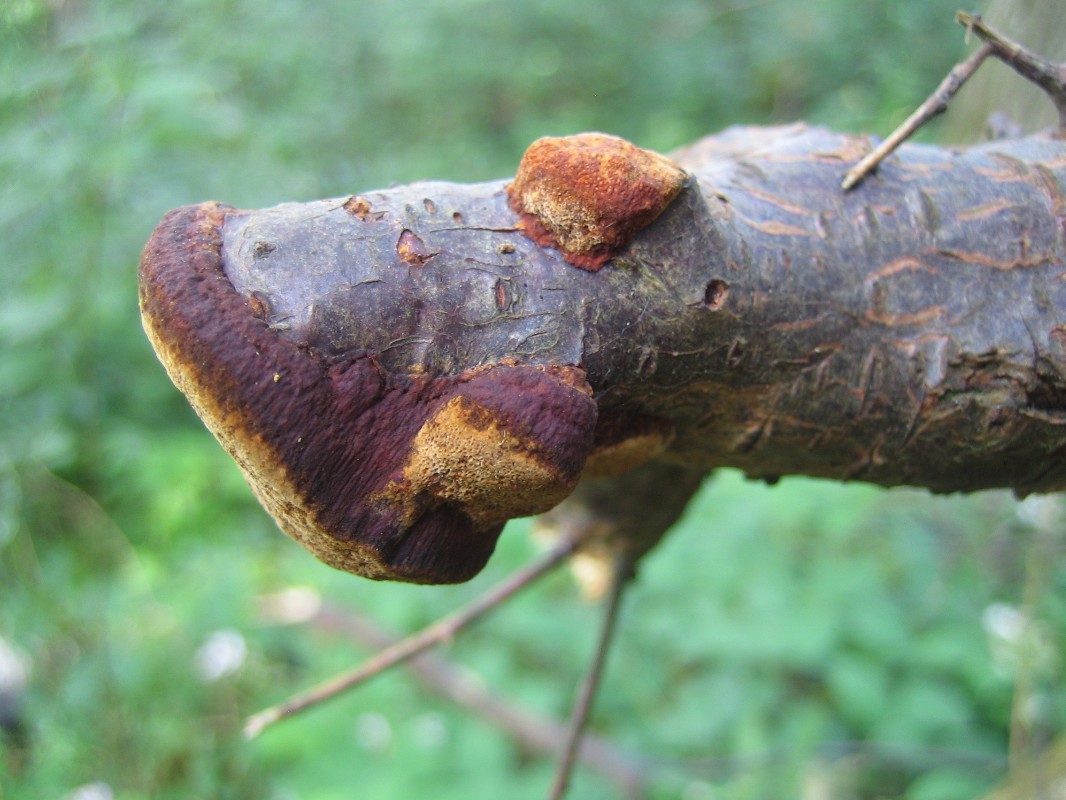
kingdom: Fungi
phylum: Basidiomycota
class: Agaricomycetes
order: Hymenochaetales
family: Hymenochaetaceae
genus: Phellinus
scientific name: Phellinus pomaceus
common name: blomme-ildporesvamp
